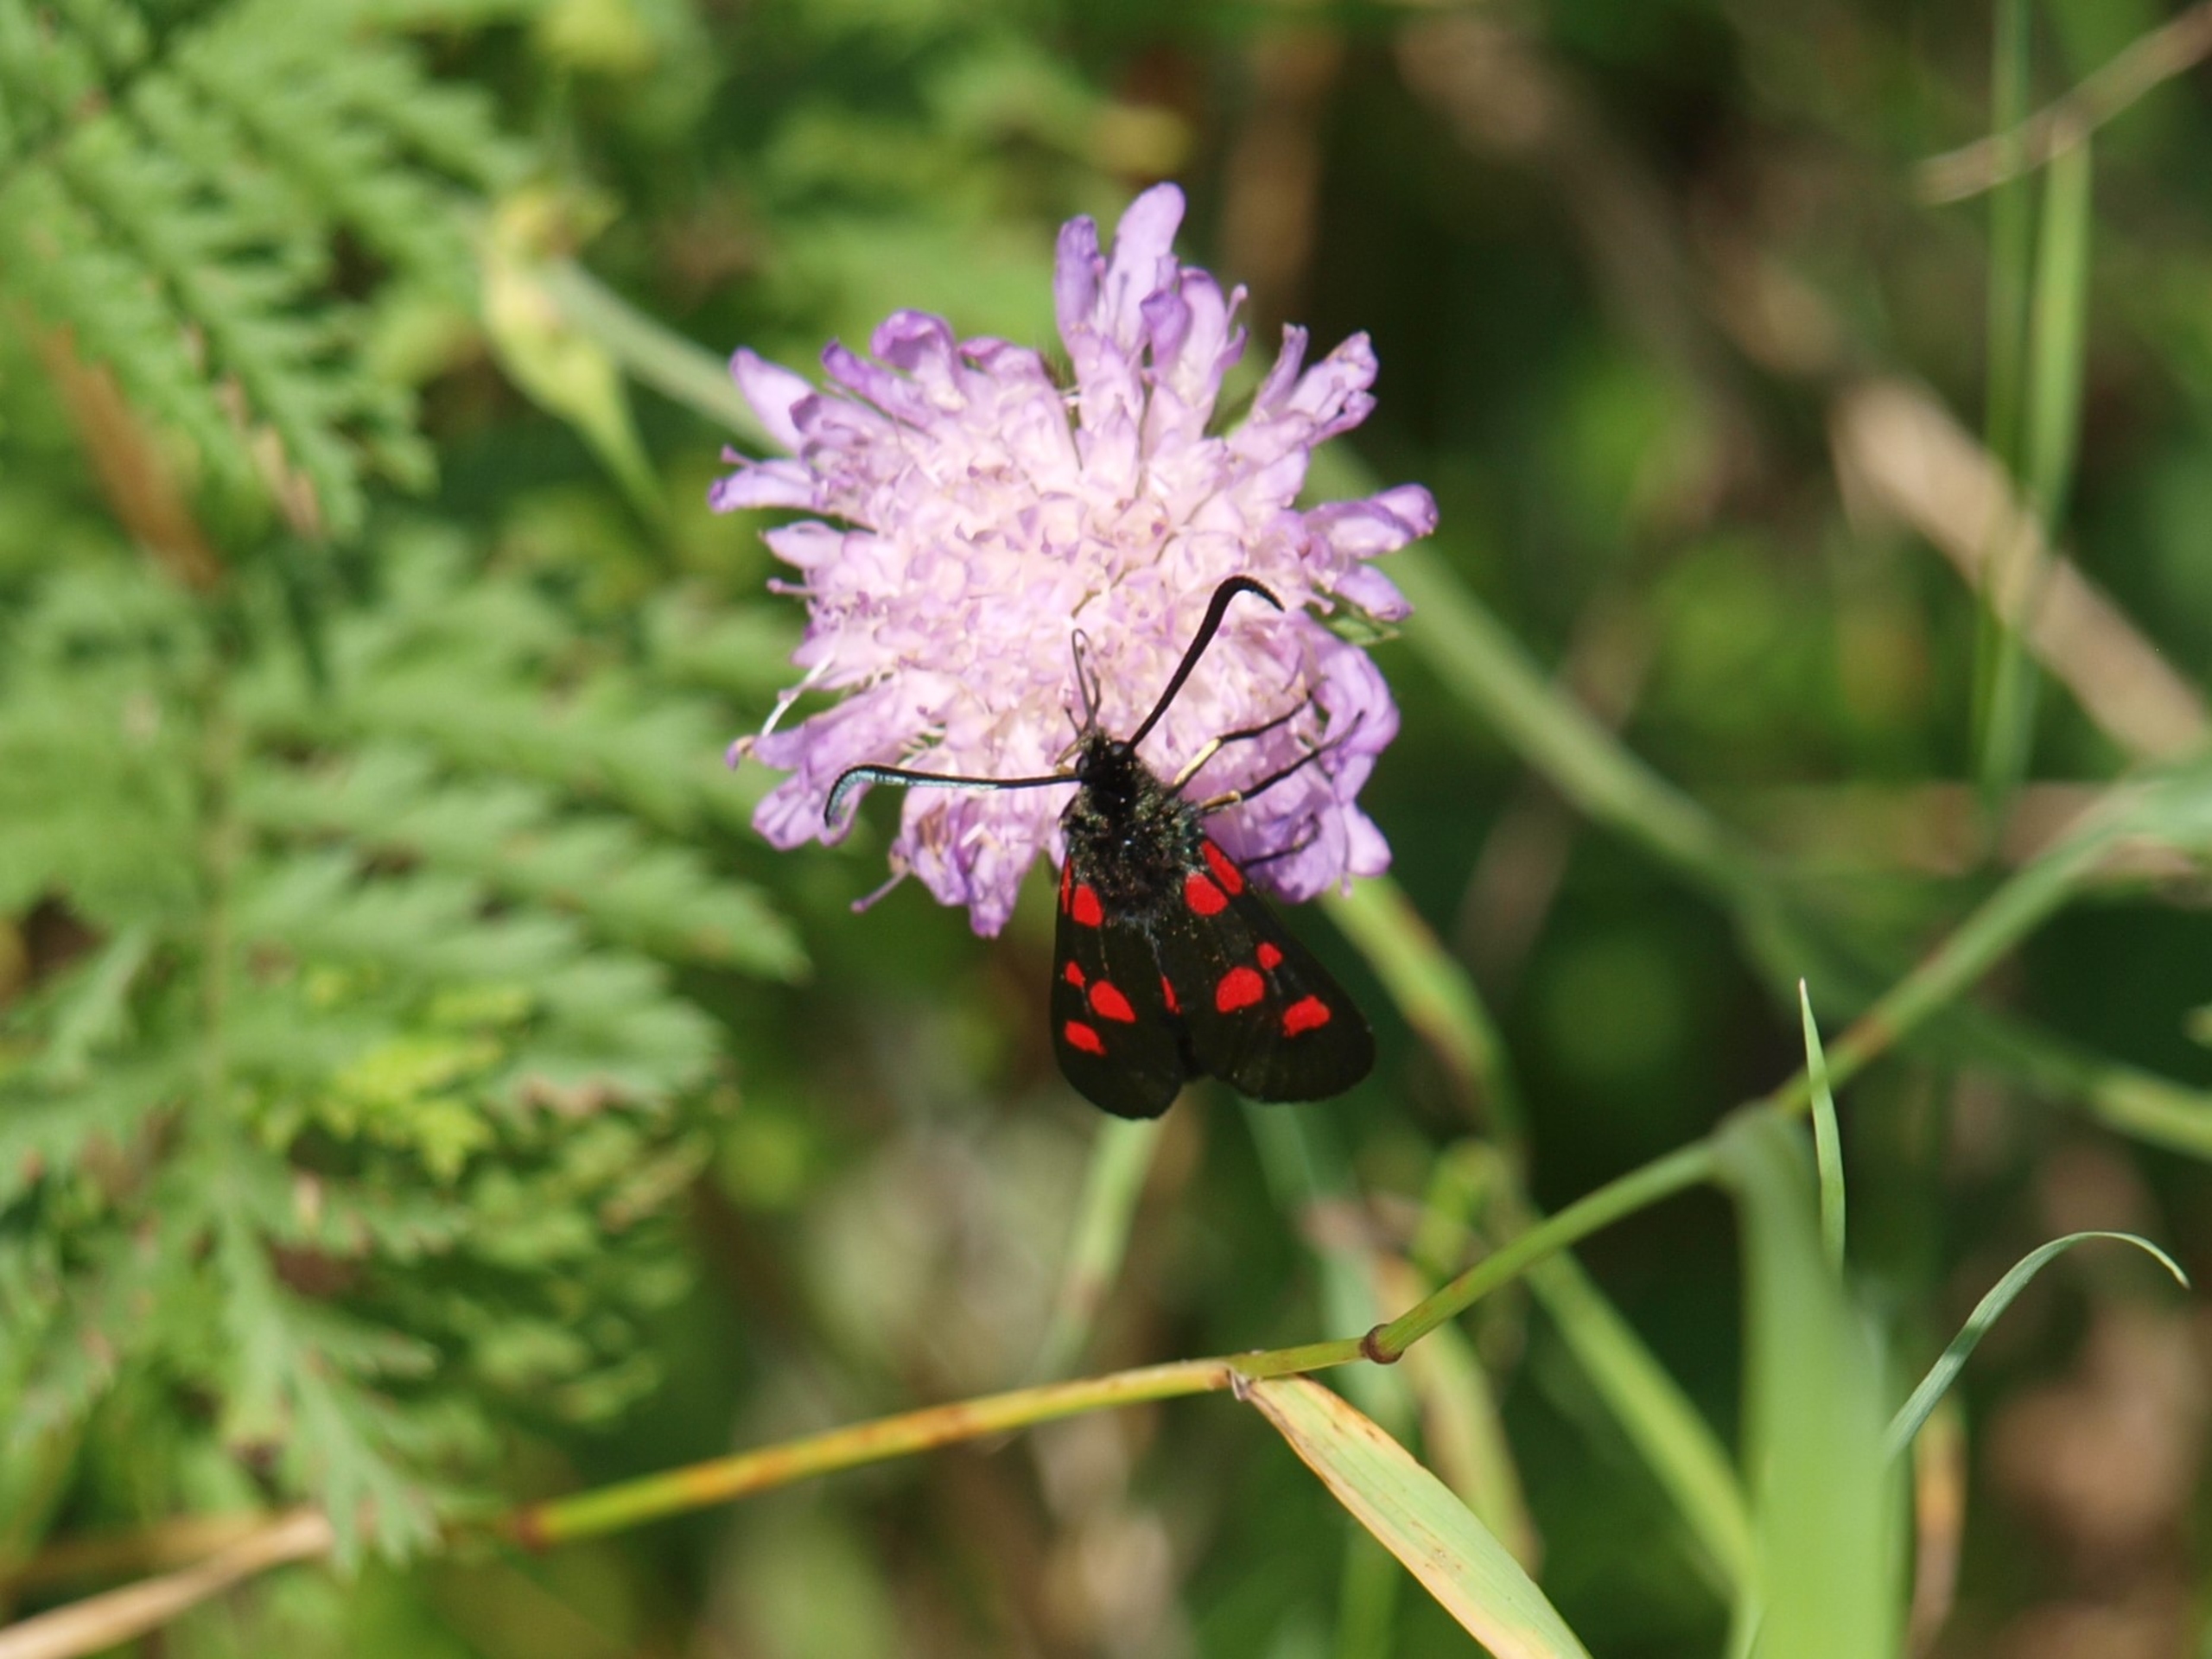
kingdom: Animalia
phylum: Arthropoda
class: Insecta
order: Lepidoptera
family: Zygaenidae
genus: Zygaena
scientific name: Zygaena lonicerae
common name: Femplettet køllesværmer
